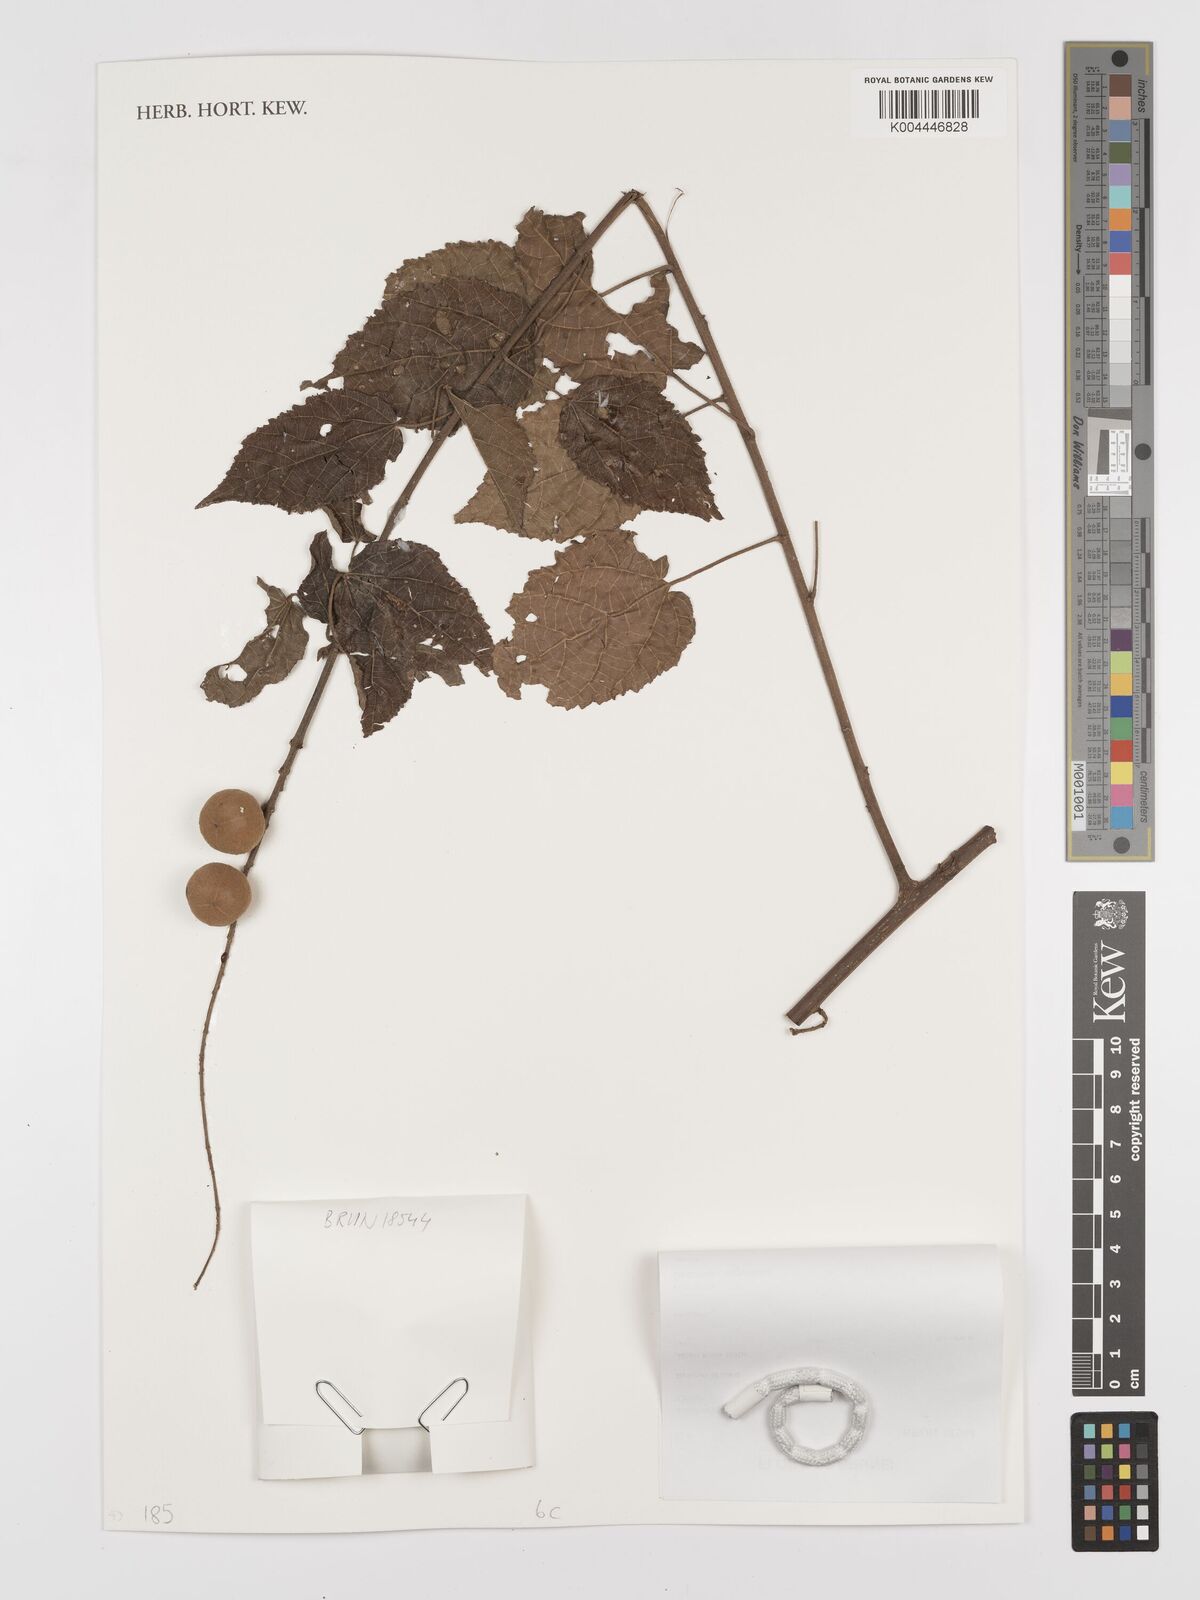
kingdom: Plantae
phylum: Tracheophyta
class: Magnoliopsida
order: Malpighiales
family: Euphorbiaceae
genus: Croton
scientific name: Croton krabas
